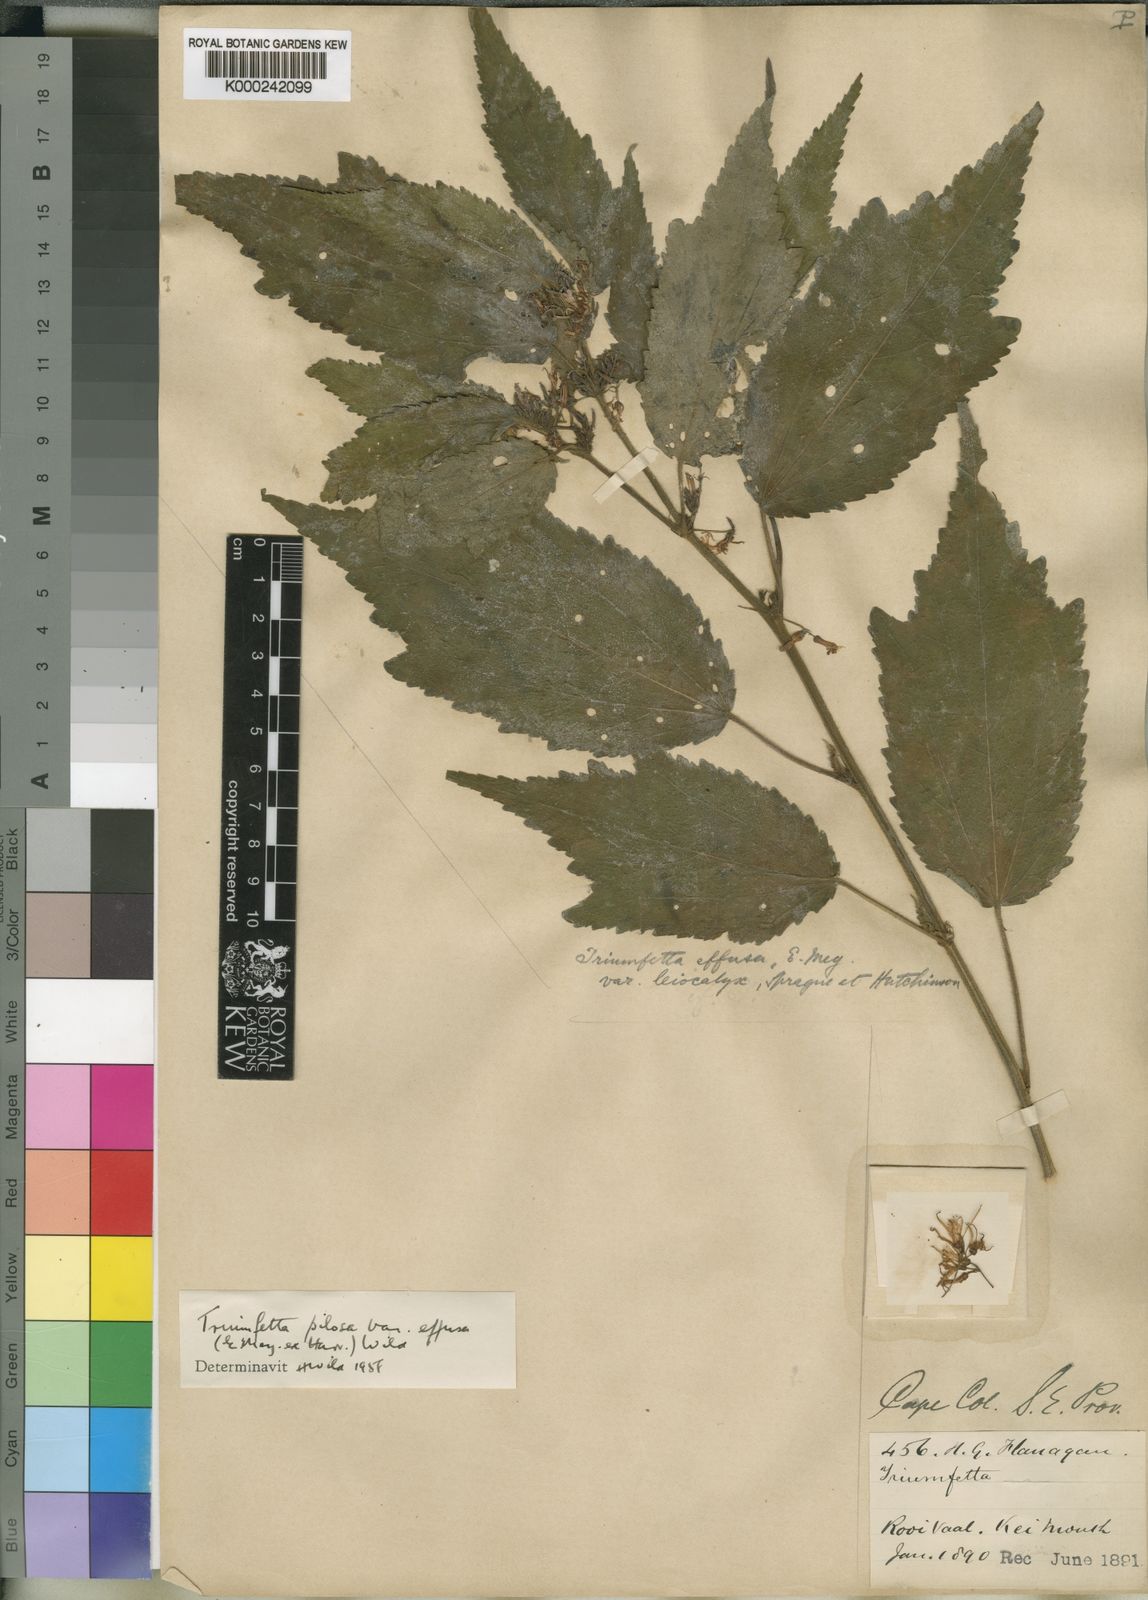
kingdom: Plantae
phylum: Tracheophyta
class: Magnoliopsida
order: Malvales
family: Malvaceae
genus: Triumfetta
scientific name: Triumfetta pilosa
